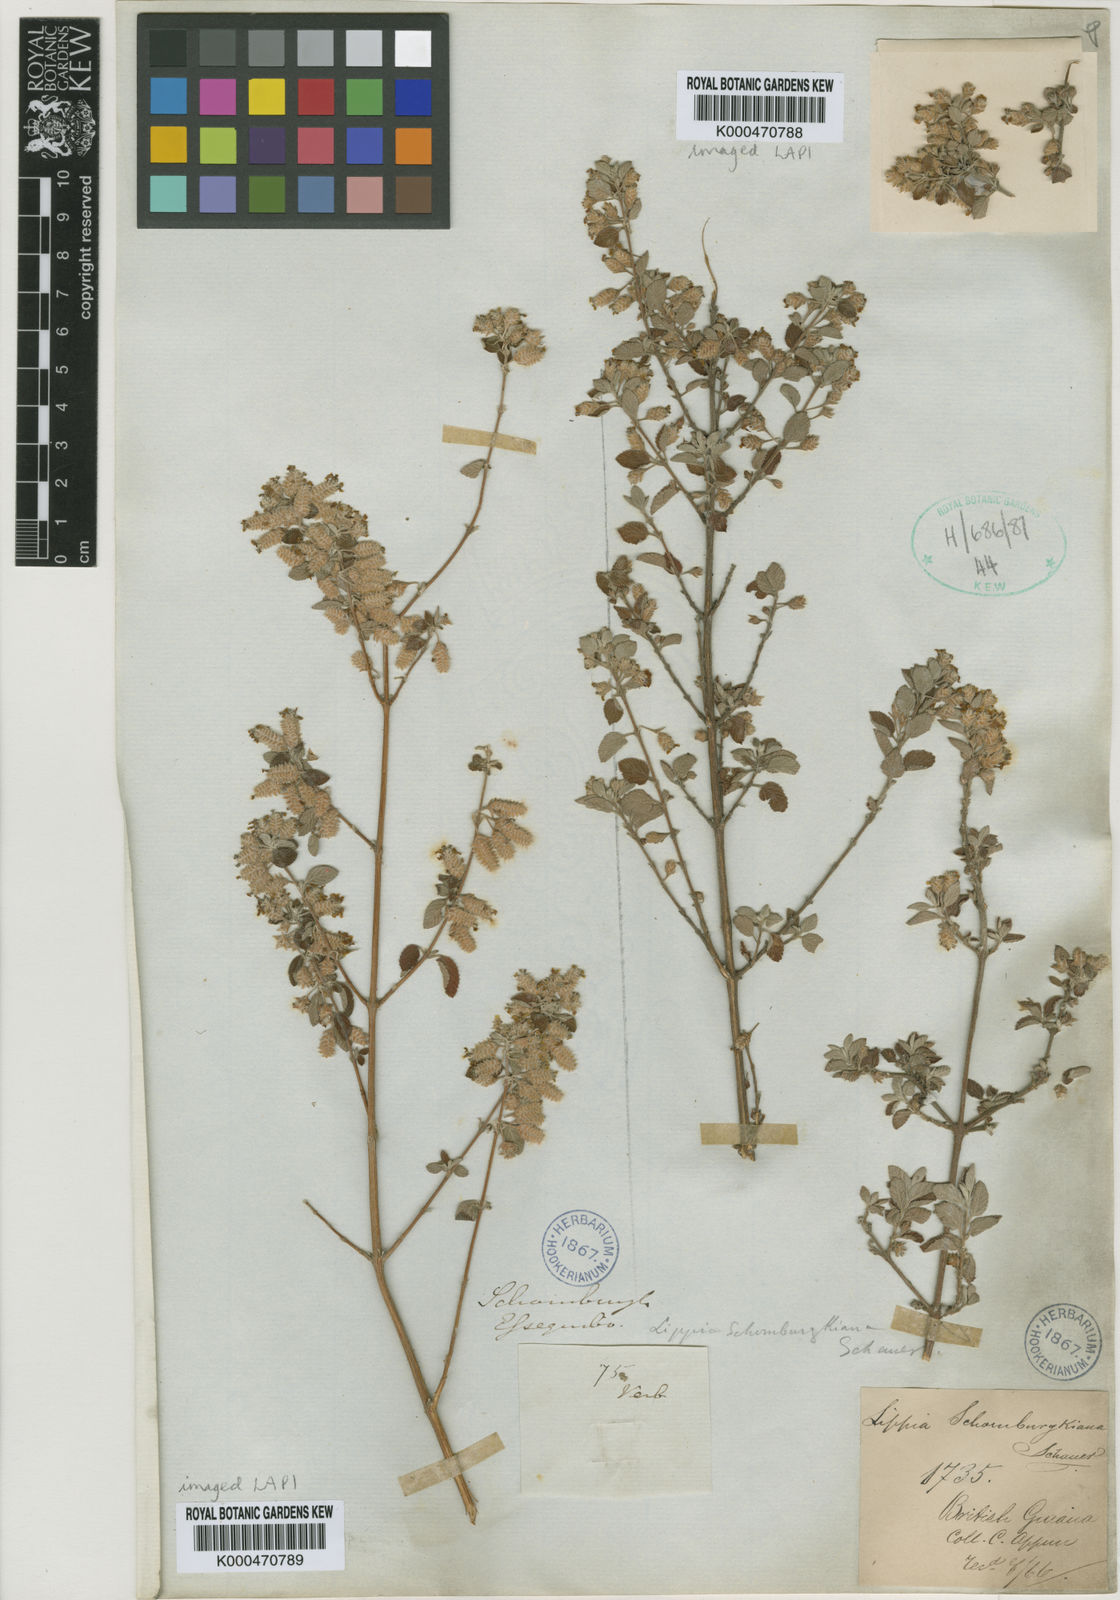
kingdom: Plantae
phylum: Tracheophyta
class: Magnoliopsida
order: Lamiales
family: Verbenaceae
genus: Lippia
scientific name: Lippia origanoides
